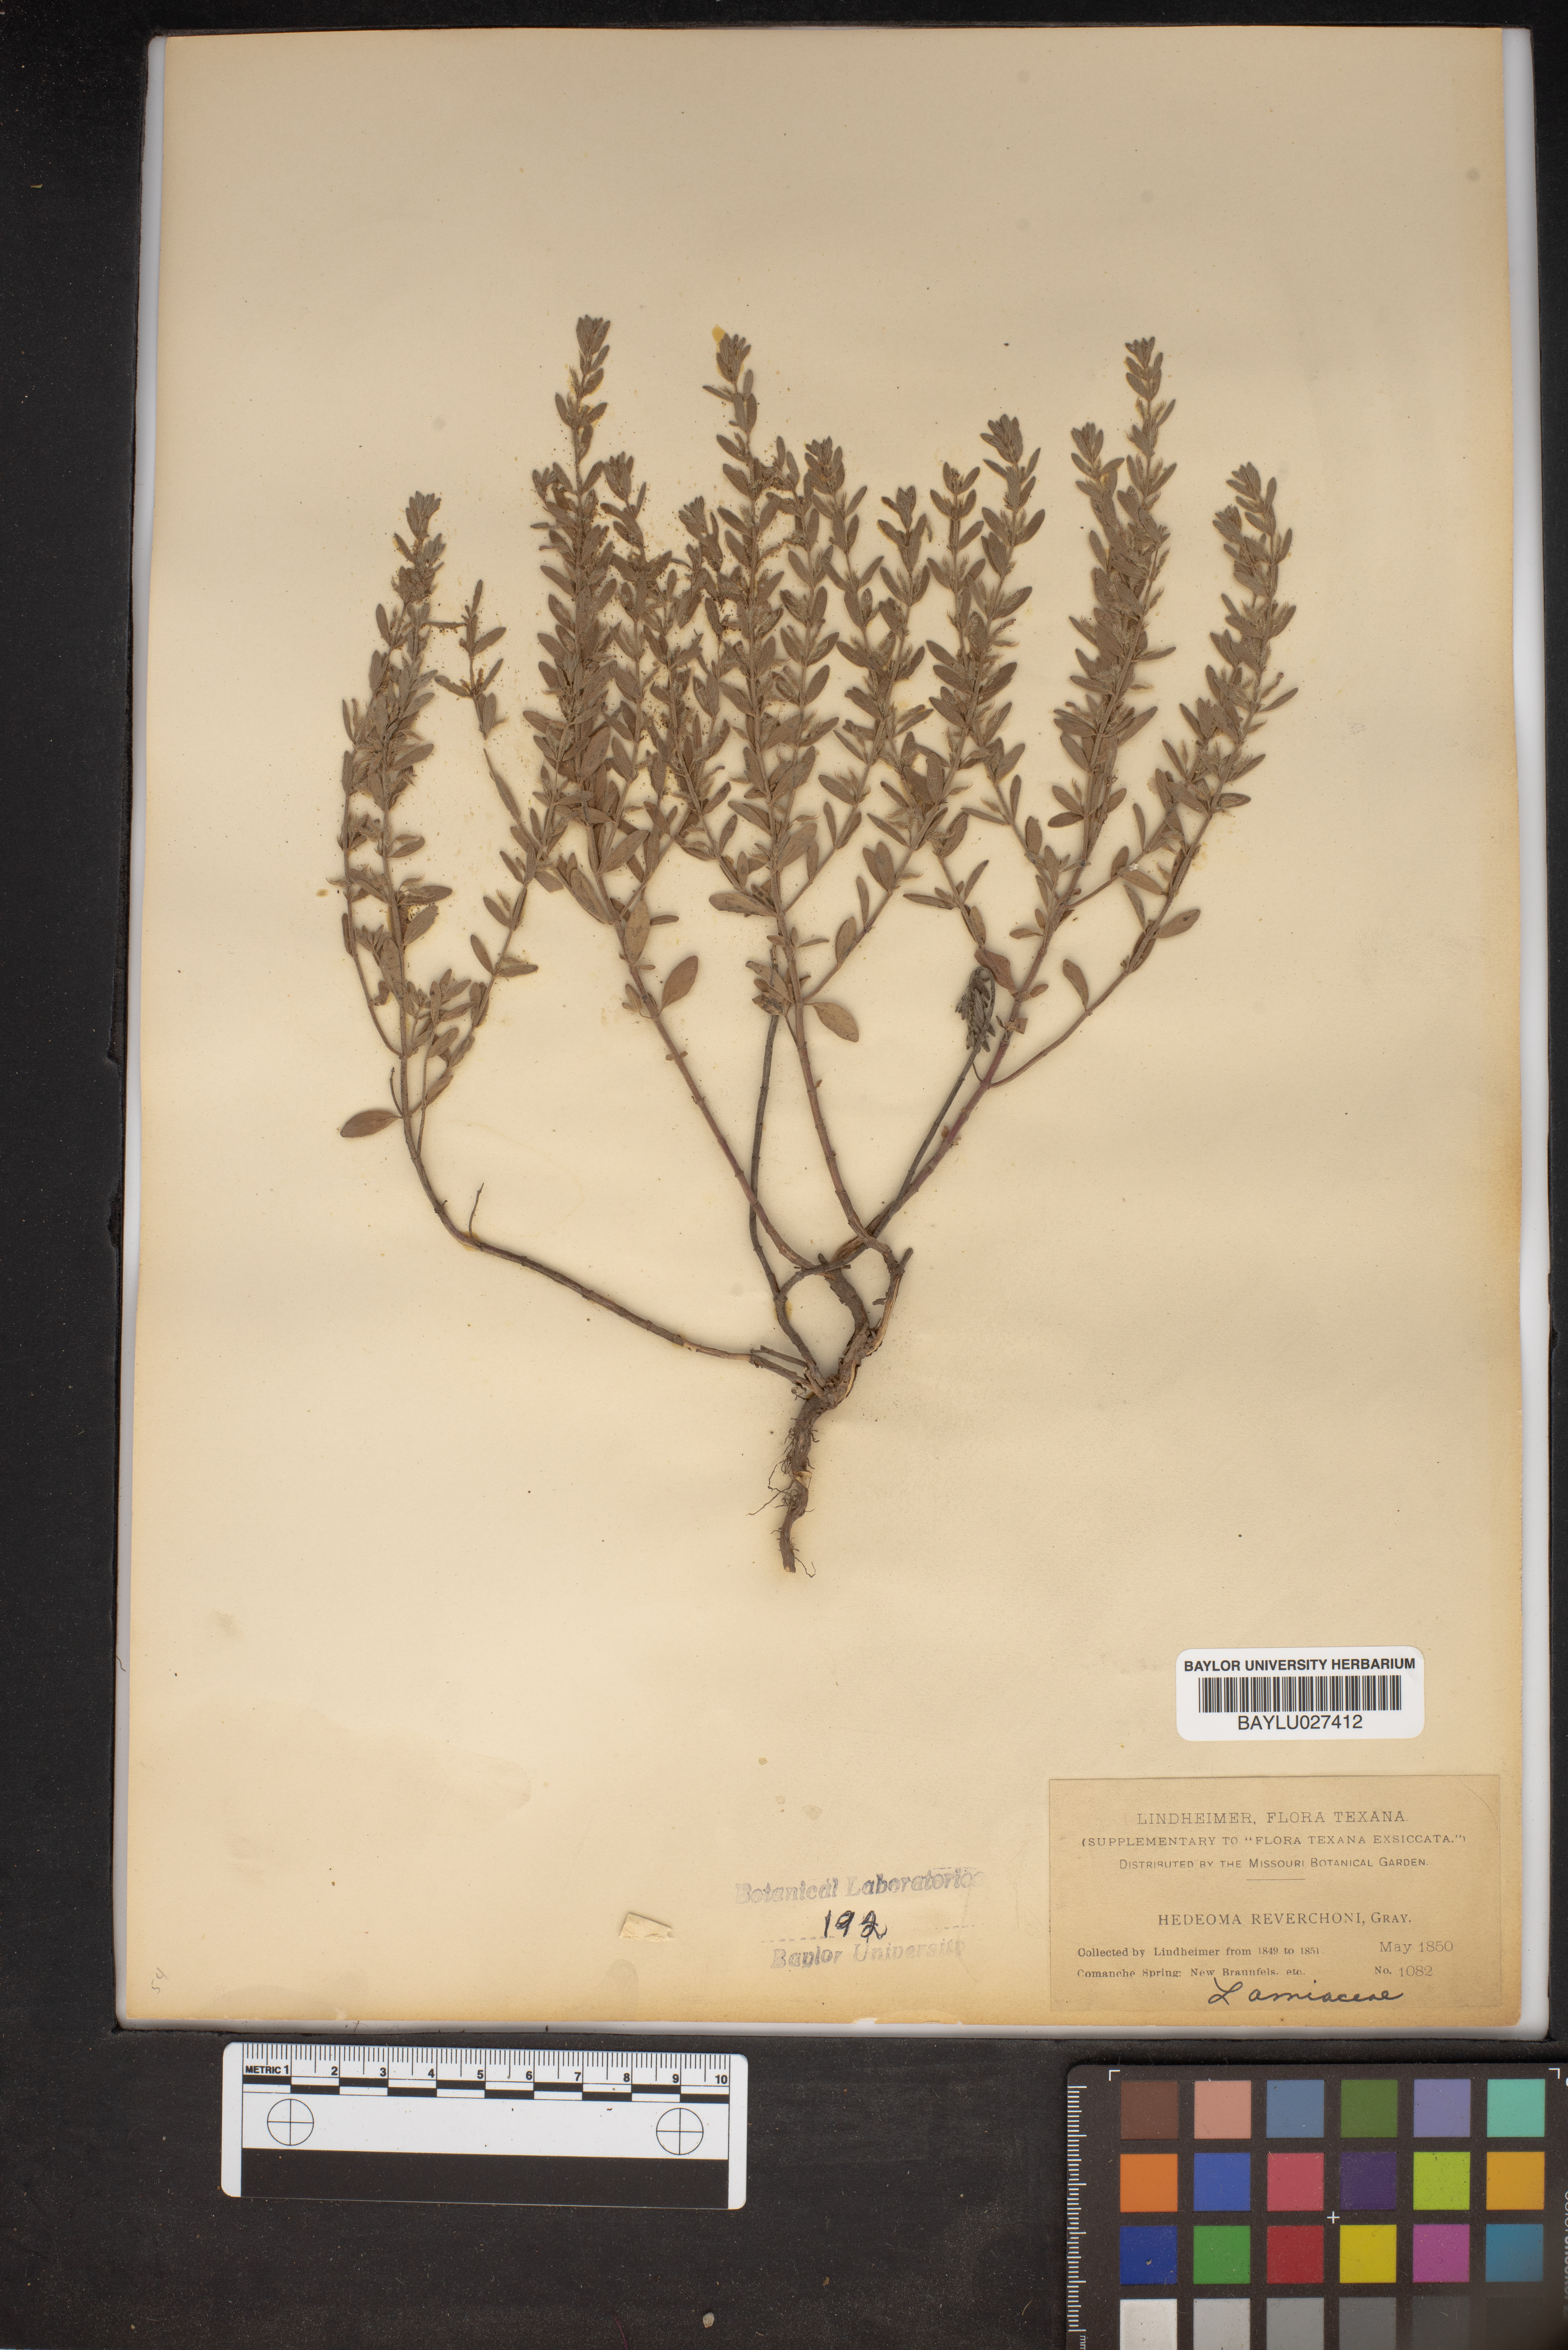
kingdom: Plantae
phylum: Tracheophyta
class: Magnoliopsida
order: Lamiales
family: Lamiaceae
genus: Hedeoma
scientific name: Hedeoma reverchonii
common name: Reverchon's false penny-royal
